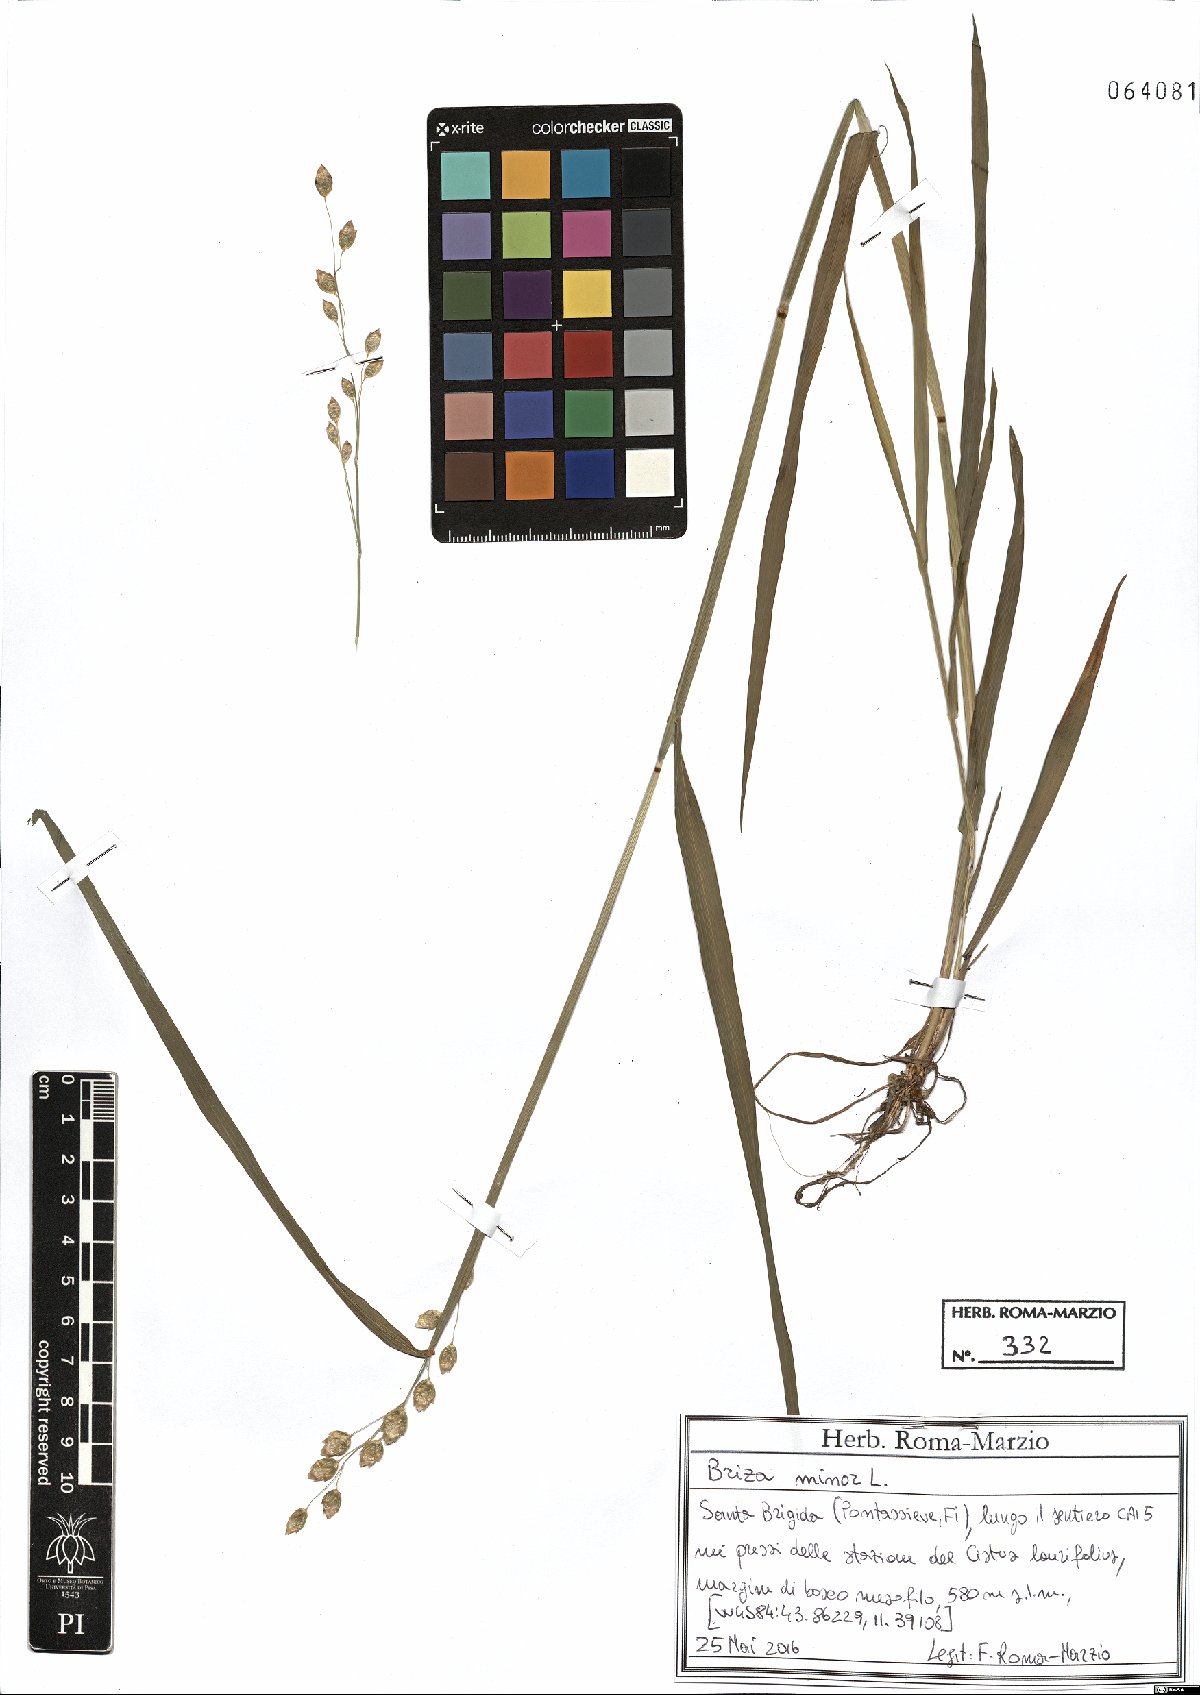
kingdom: Plantae
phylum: Tracheophyta
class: Liliopsida
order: Poales
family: Poaceae
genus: Briza
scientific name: Briza minor
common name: Lesser quaking-grass
